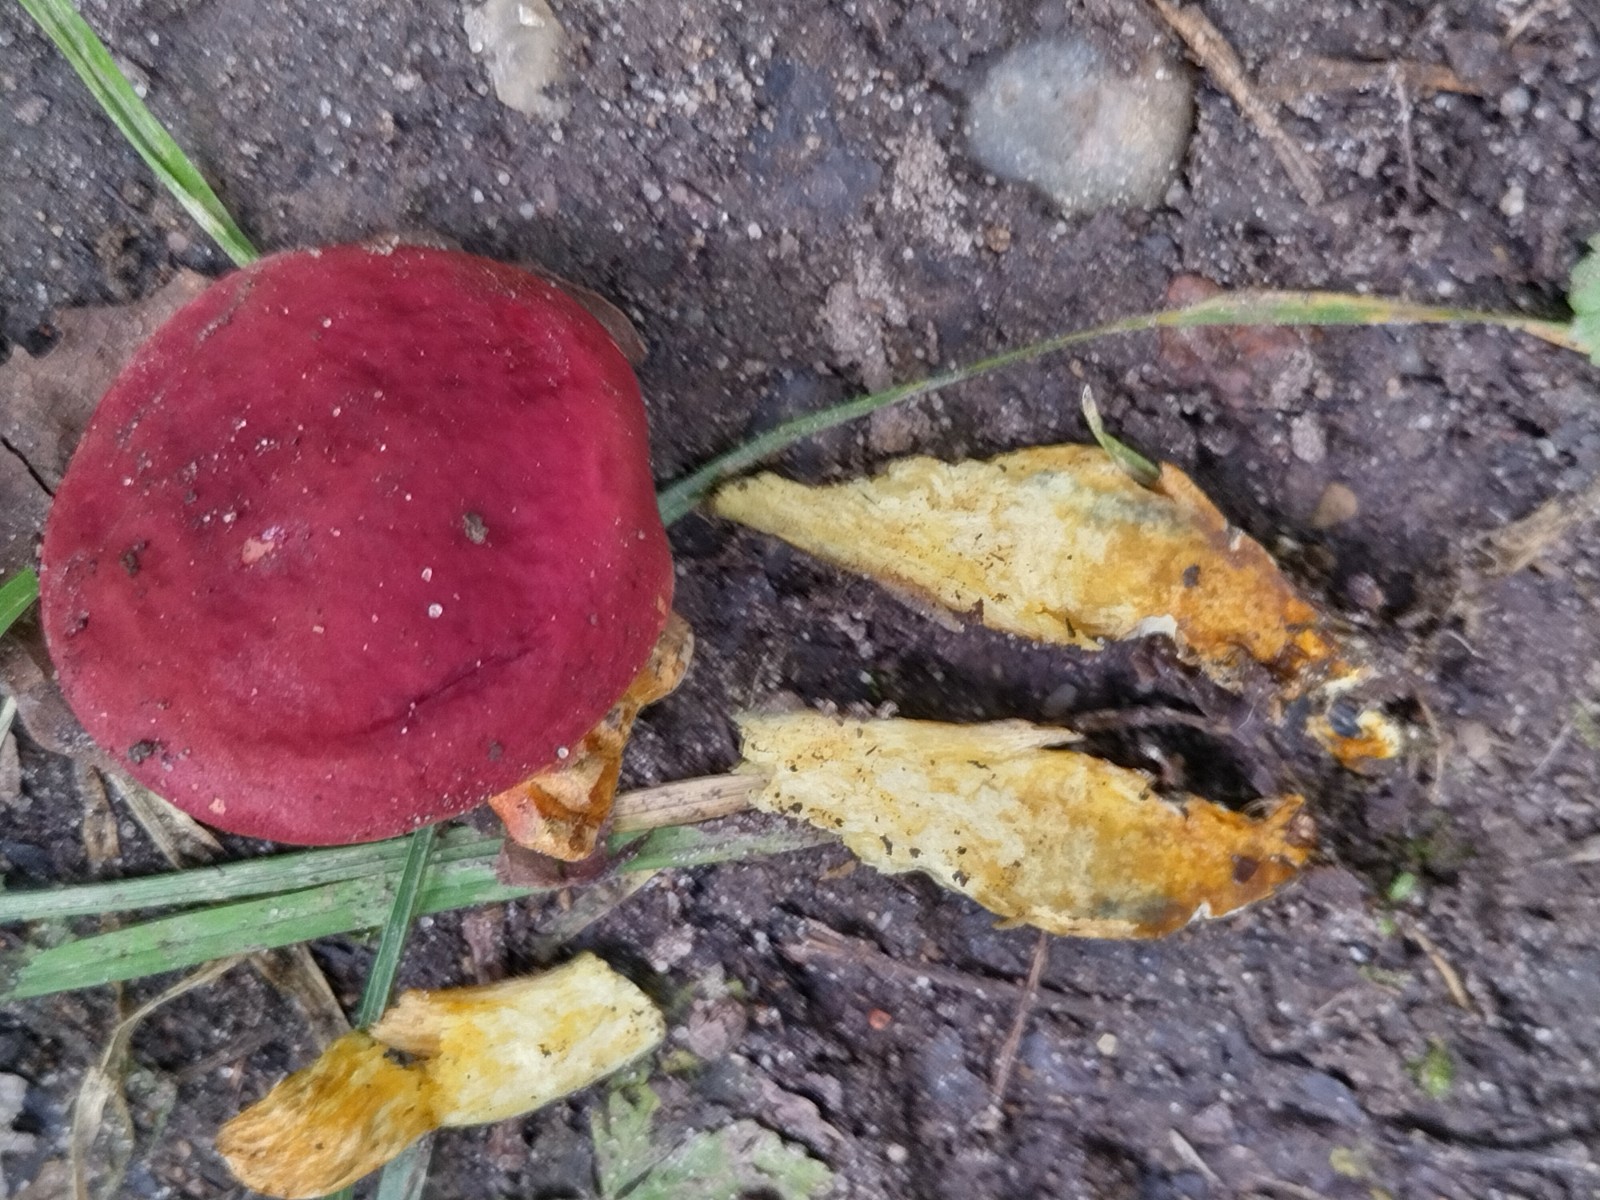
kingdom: Fungi
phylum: Basidiomycota
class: Agaricomycetes
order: Boletales
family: Boletaceae
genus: Hortiboletus
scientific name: Hortiboletus rubellus
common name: blodrød rørhat
